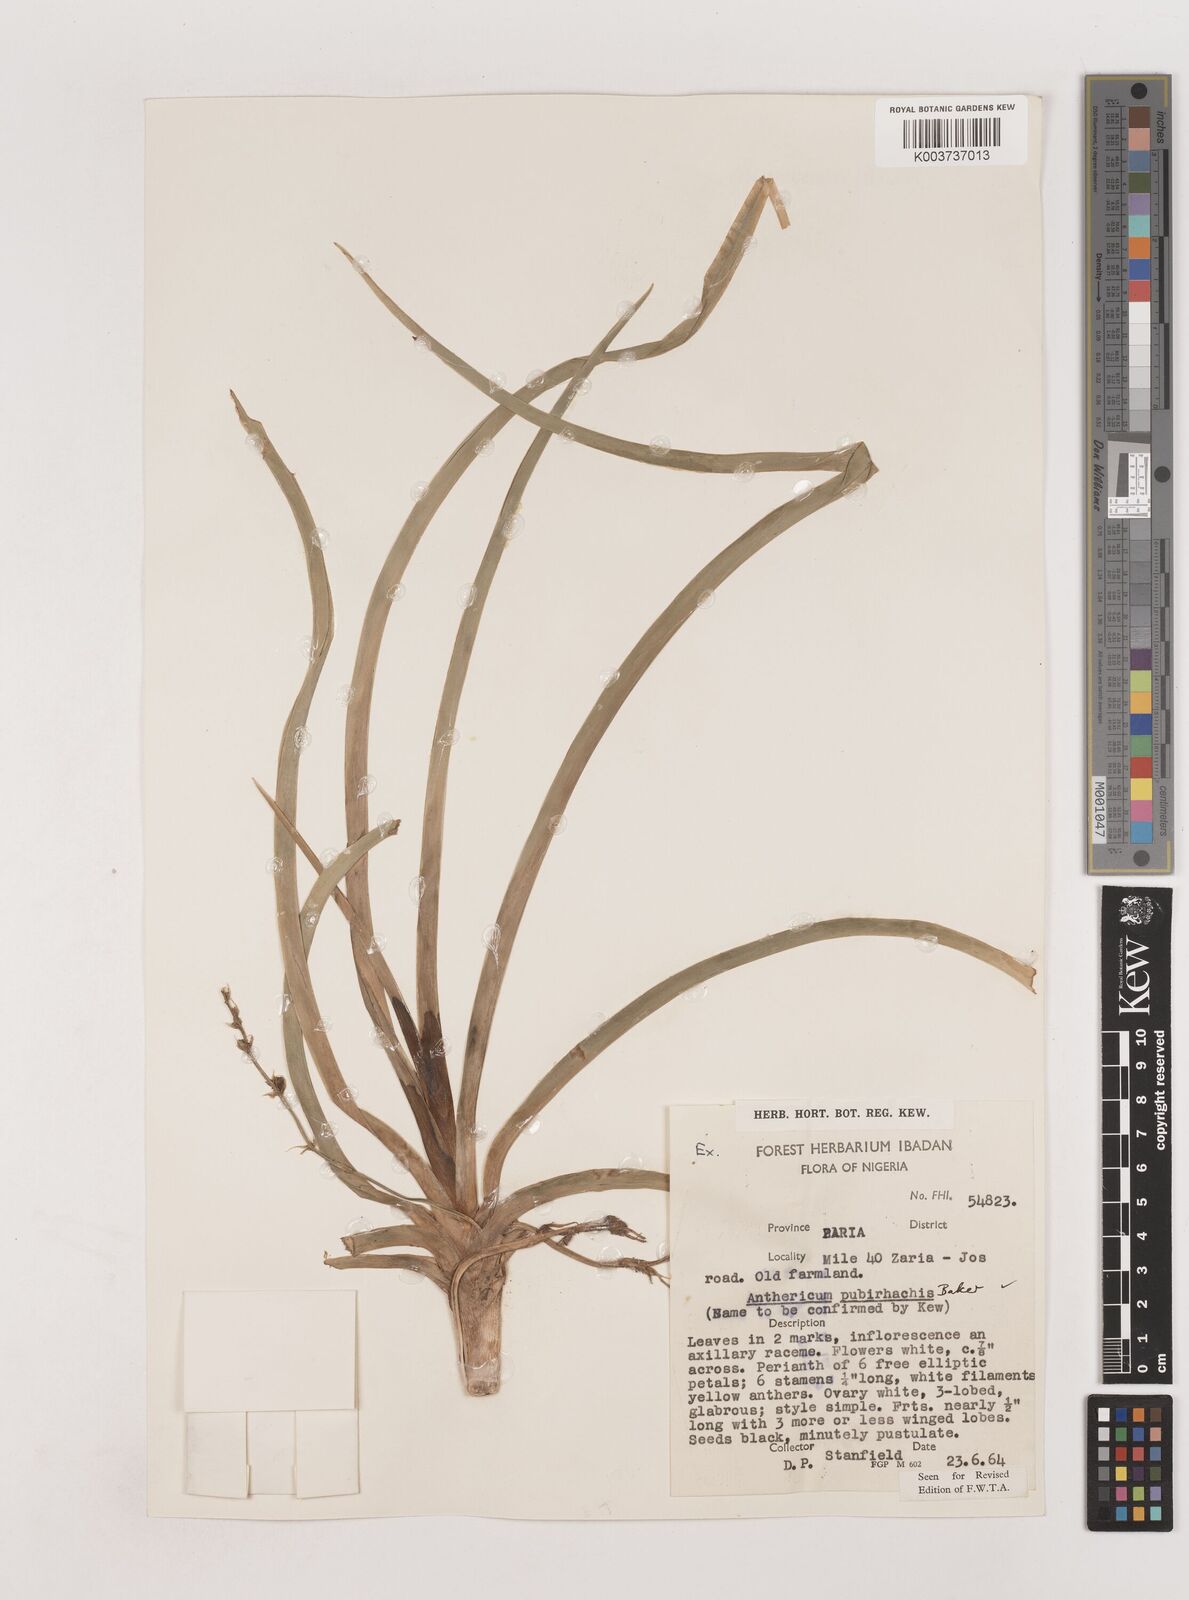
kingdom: Plantae
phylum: Tracheophyta
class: Liliopsida
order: Asparagales
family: Asparagaceae
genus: Chlorophytum
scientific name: Chlorophytum affine
